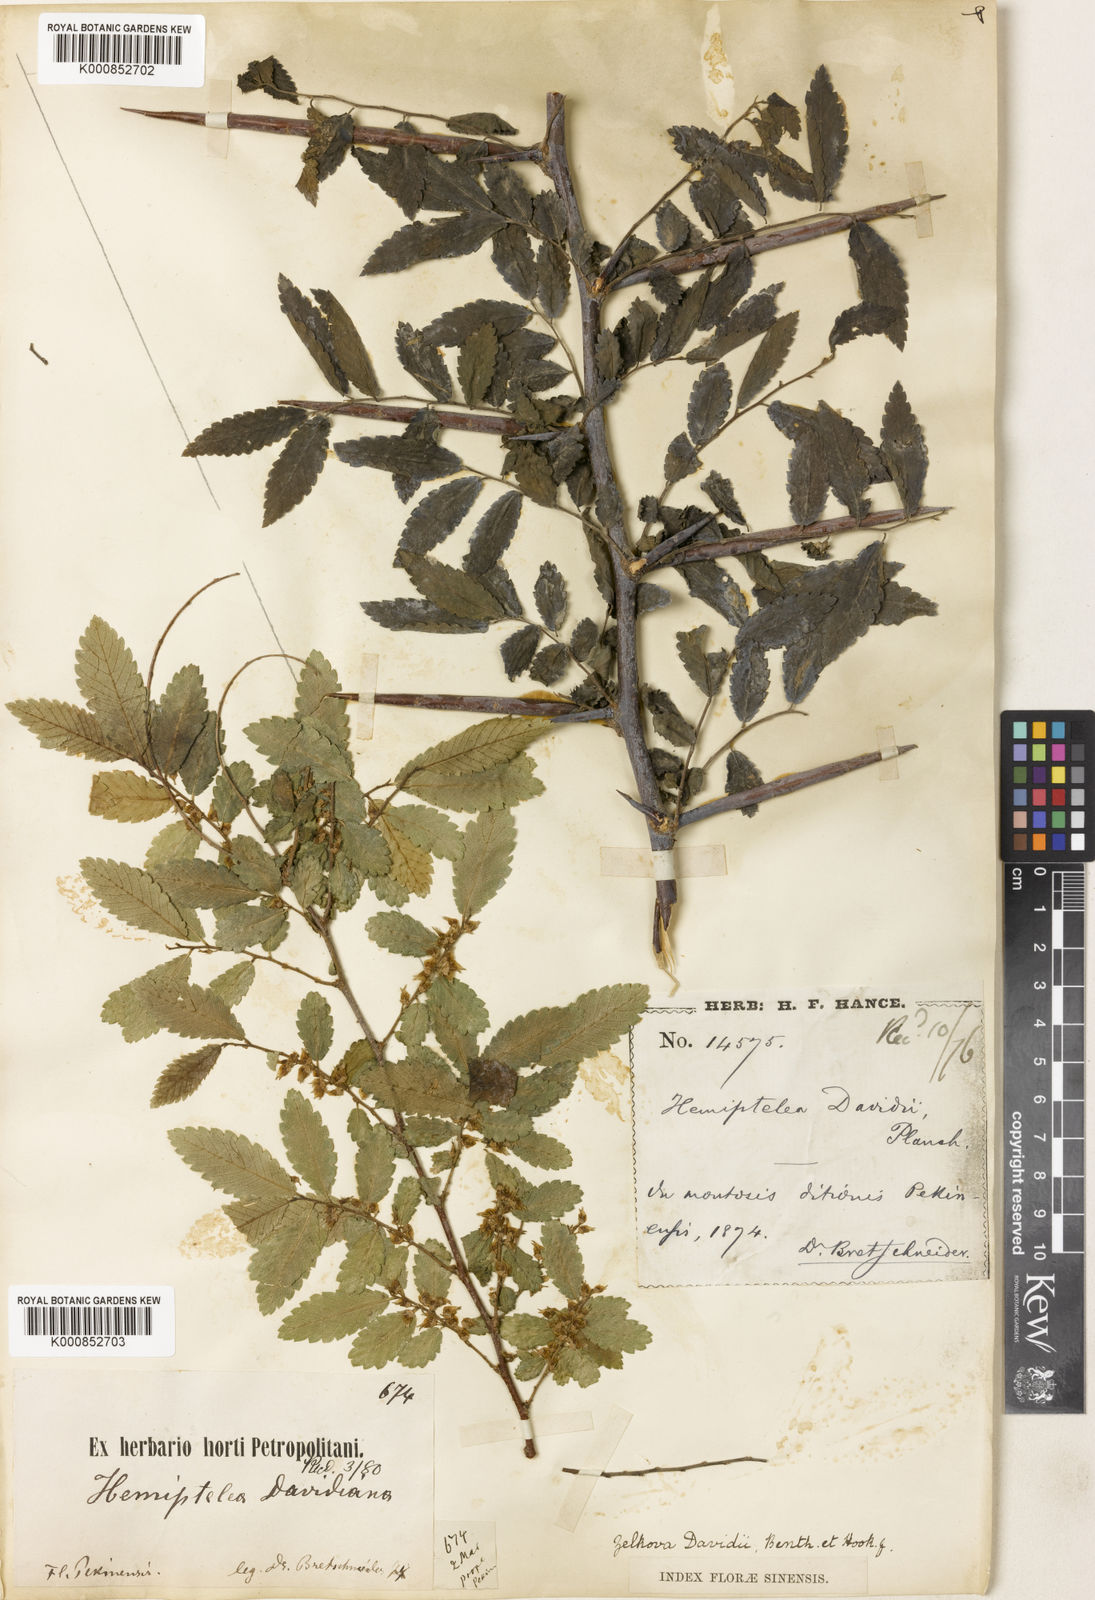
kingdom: Plantae
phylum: Tracheophyta
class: Magnoliopsida
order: Rosales
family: Ulmaceae
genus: Hemiptelea
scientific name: Hemiptelea davidii
